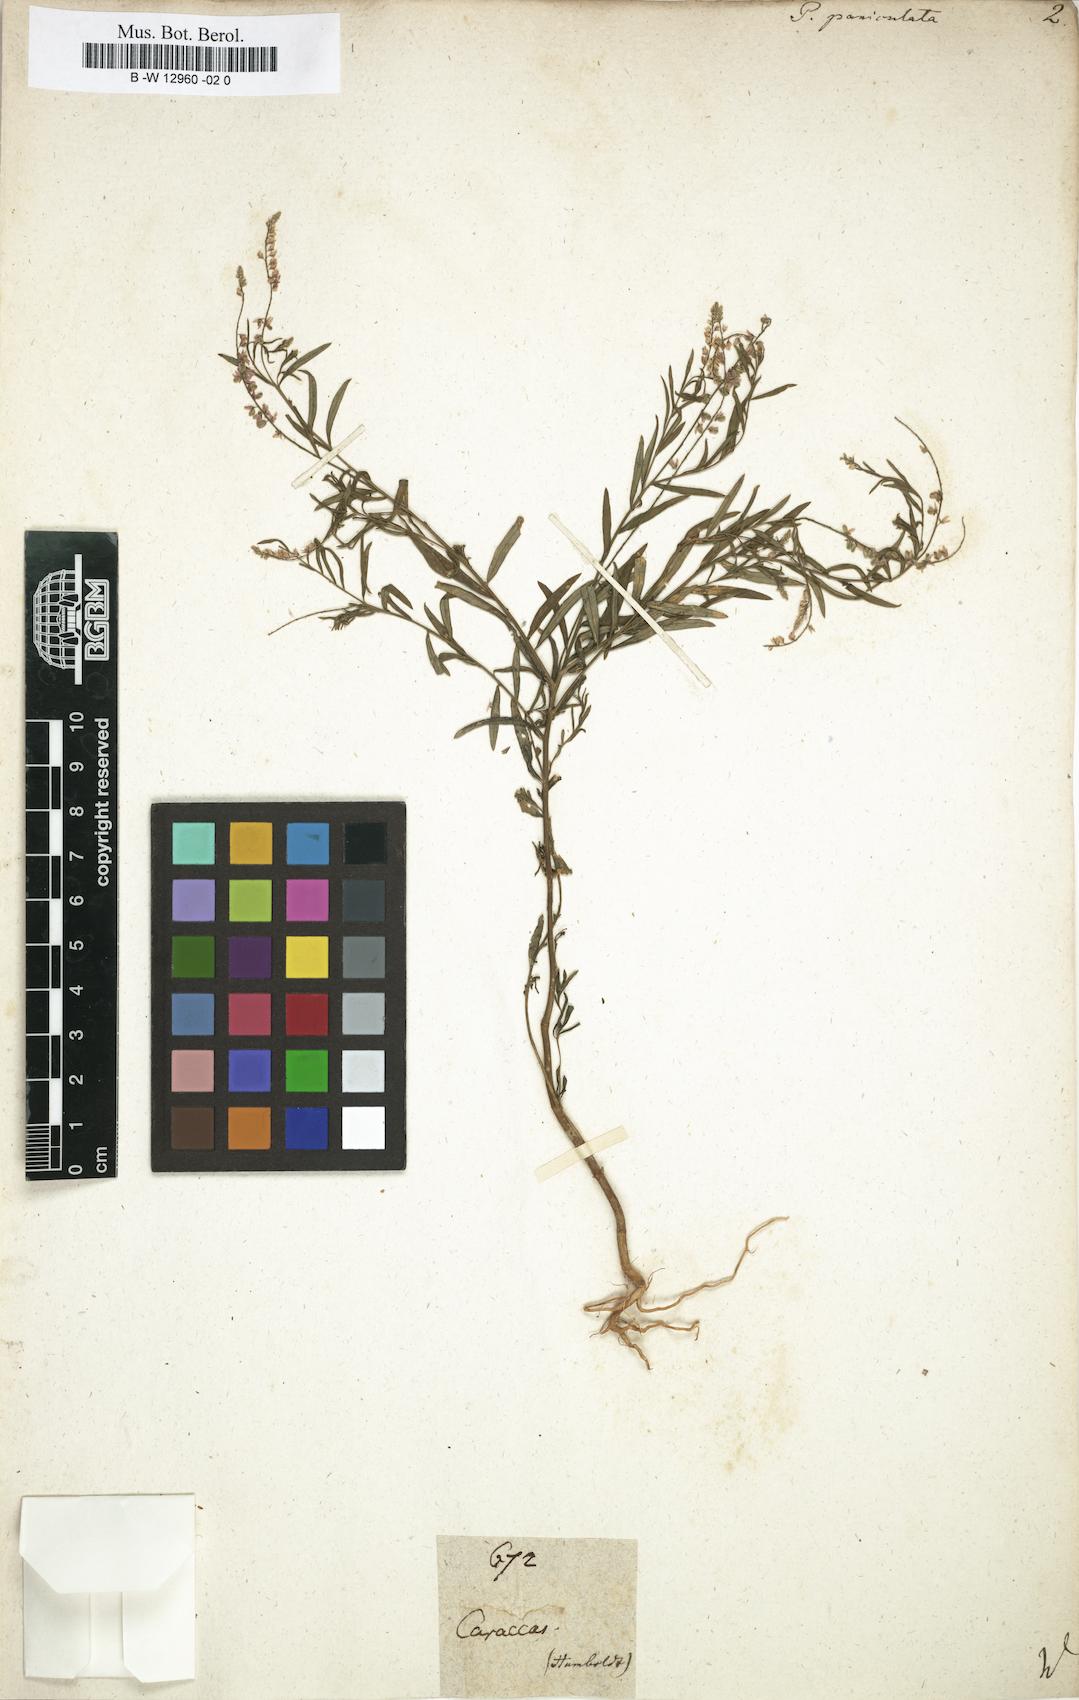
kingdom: Plantae
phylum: Tracheophyta
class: Magnoliopsida
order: Fabales
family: Polygalaceae
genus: Polygala
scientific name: Polygala paniculata
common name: Orosne
